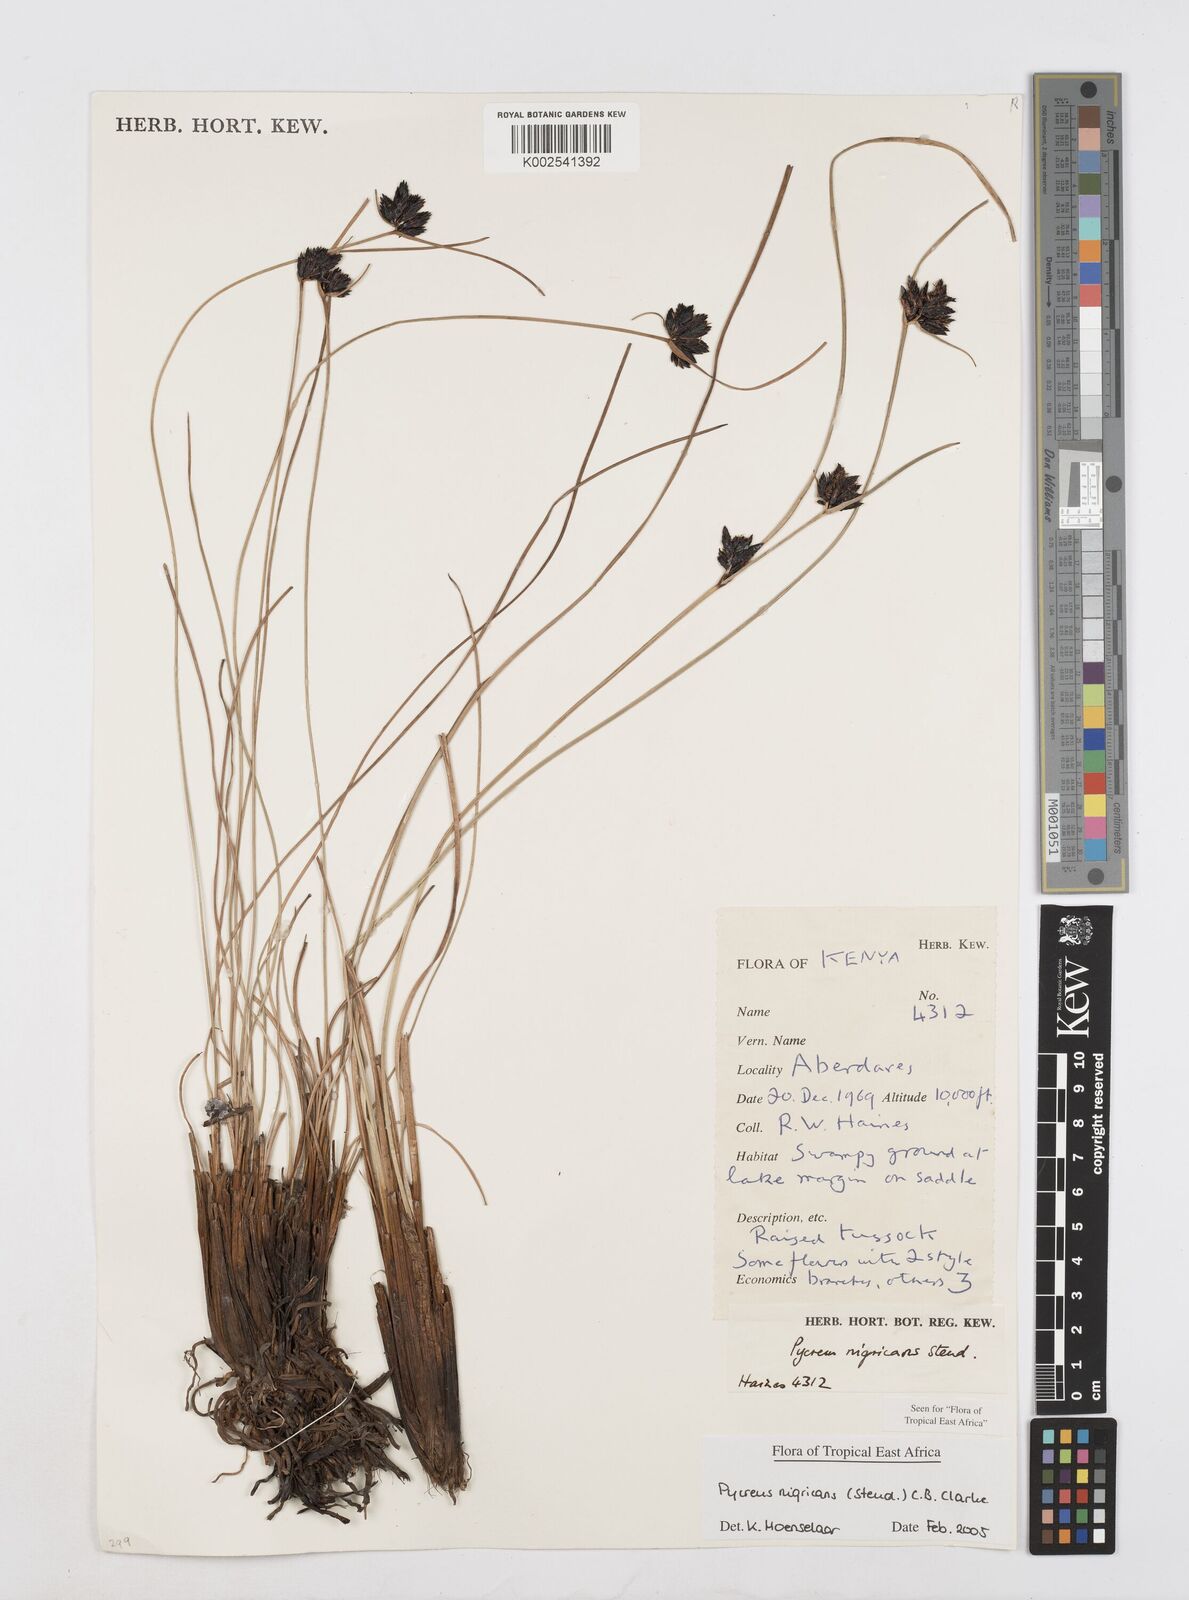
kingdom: Plantae
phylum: Tracheophyta
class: Liliopsida
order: Poales
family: Cyperaceae
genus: Cyperus
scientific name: Cyperus nigricans
